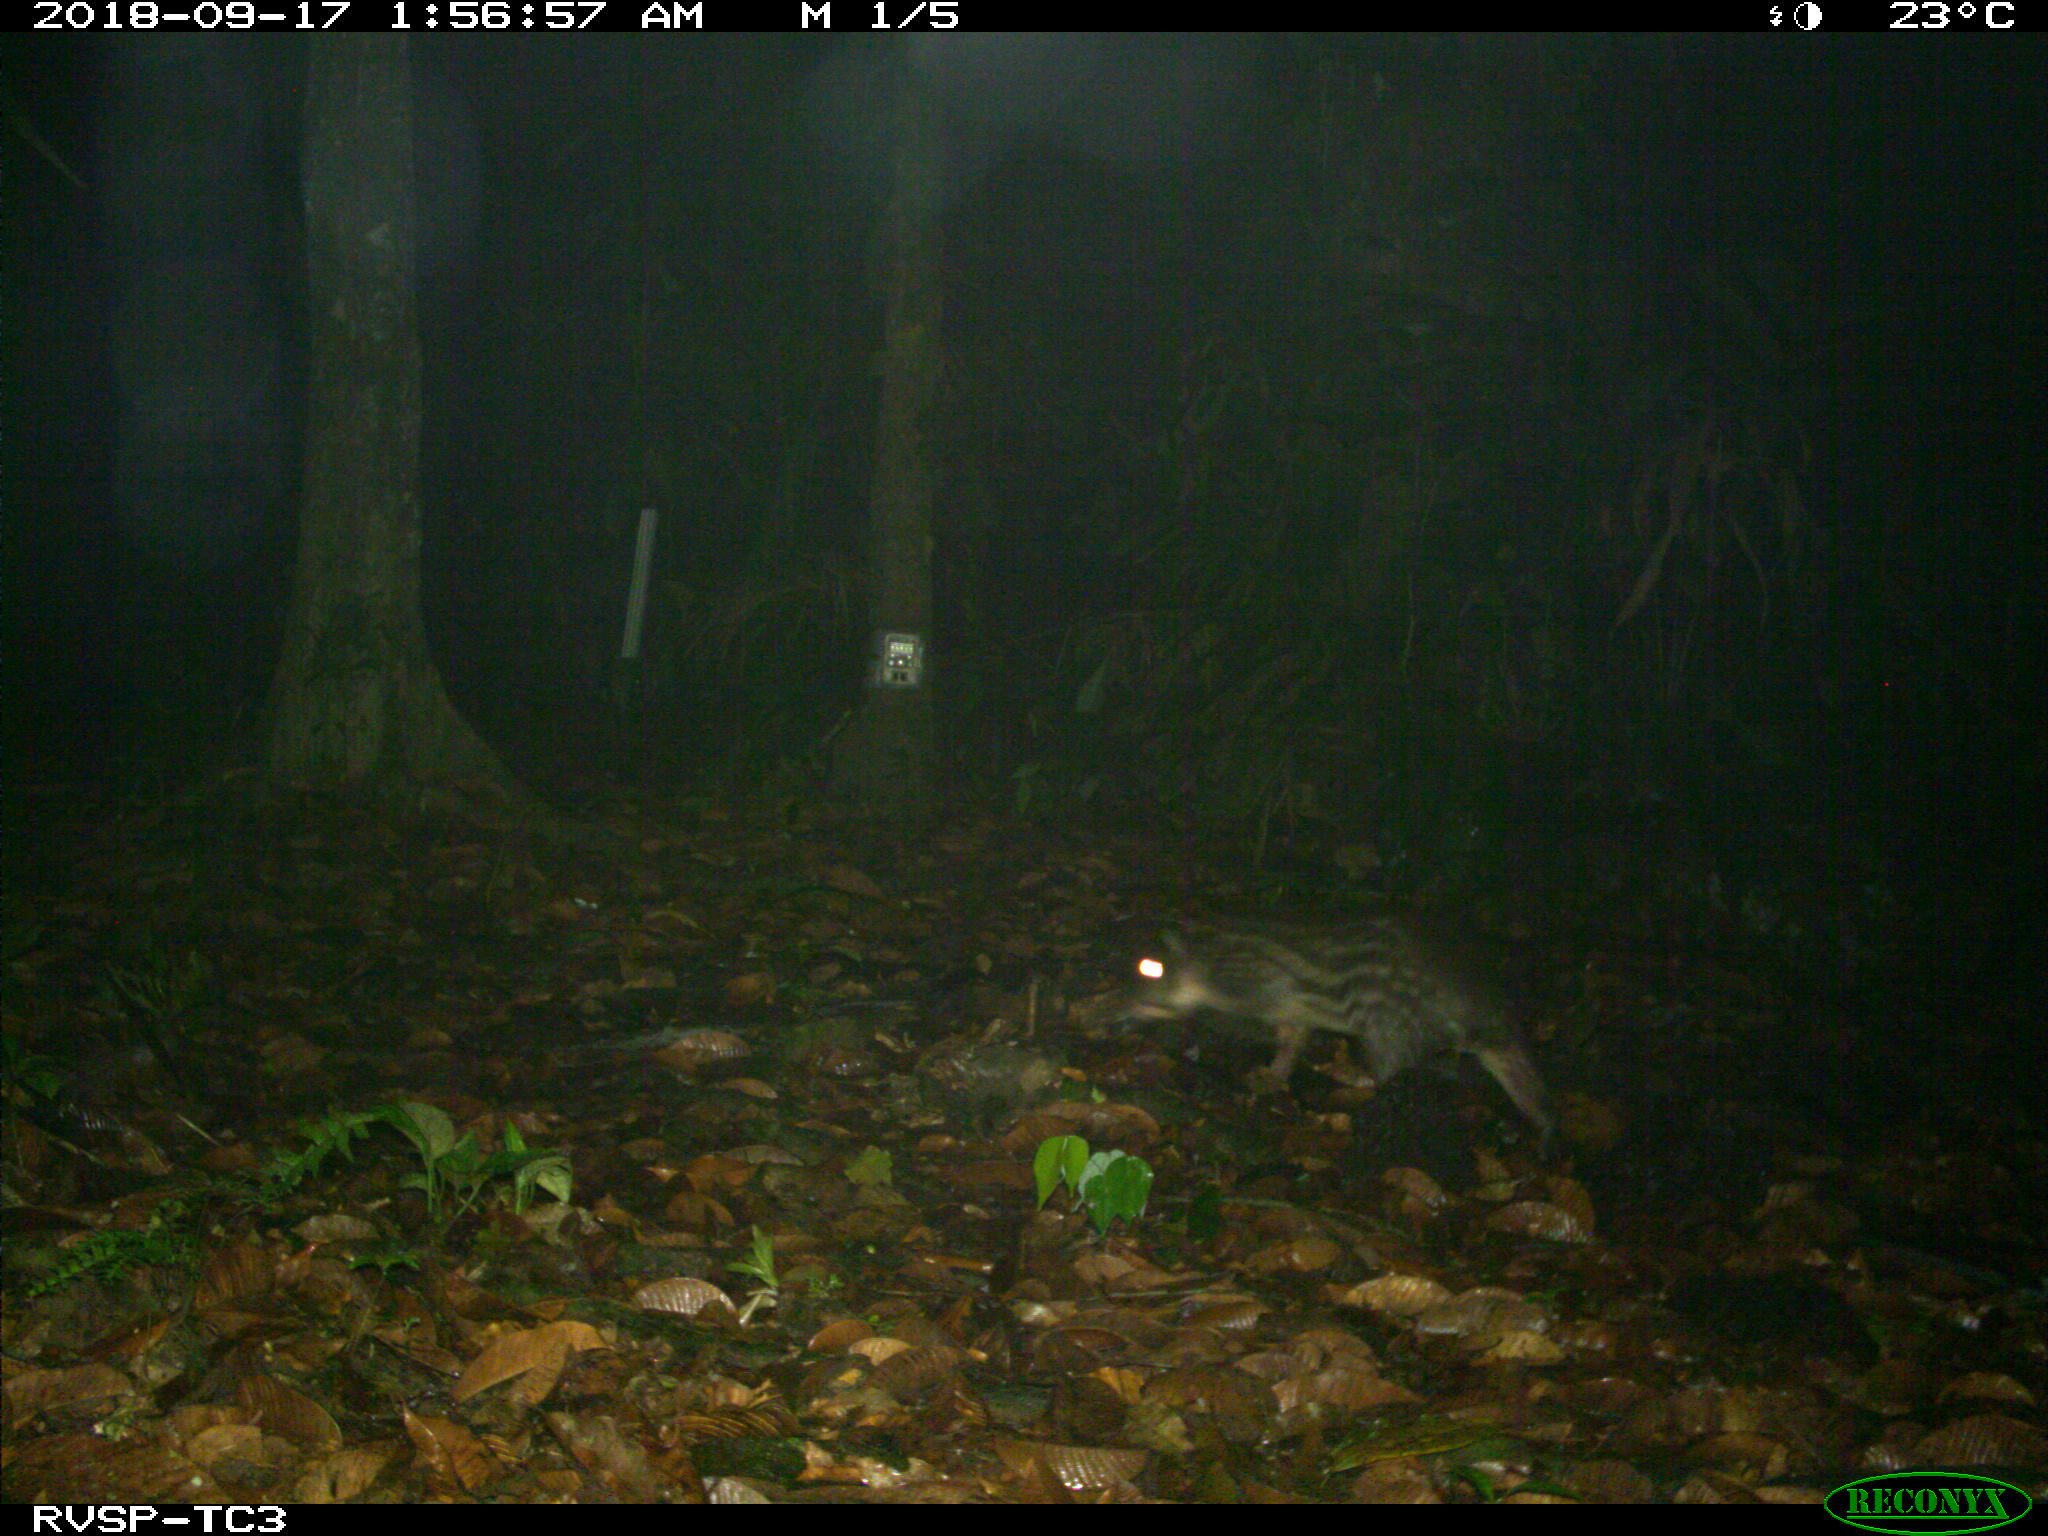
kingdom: Animalia
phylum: Chordata
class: Mammalia
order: Rodentia
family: Cuniculidae
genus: Cuniculus
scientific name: Cuniculus paca
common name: Lowland paca
